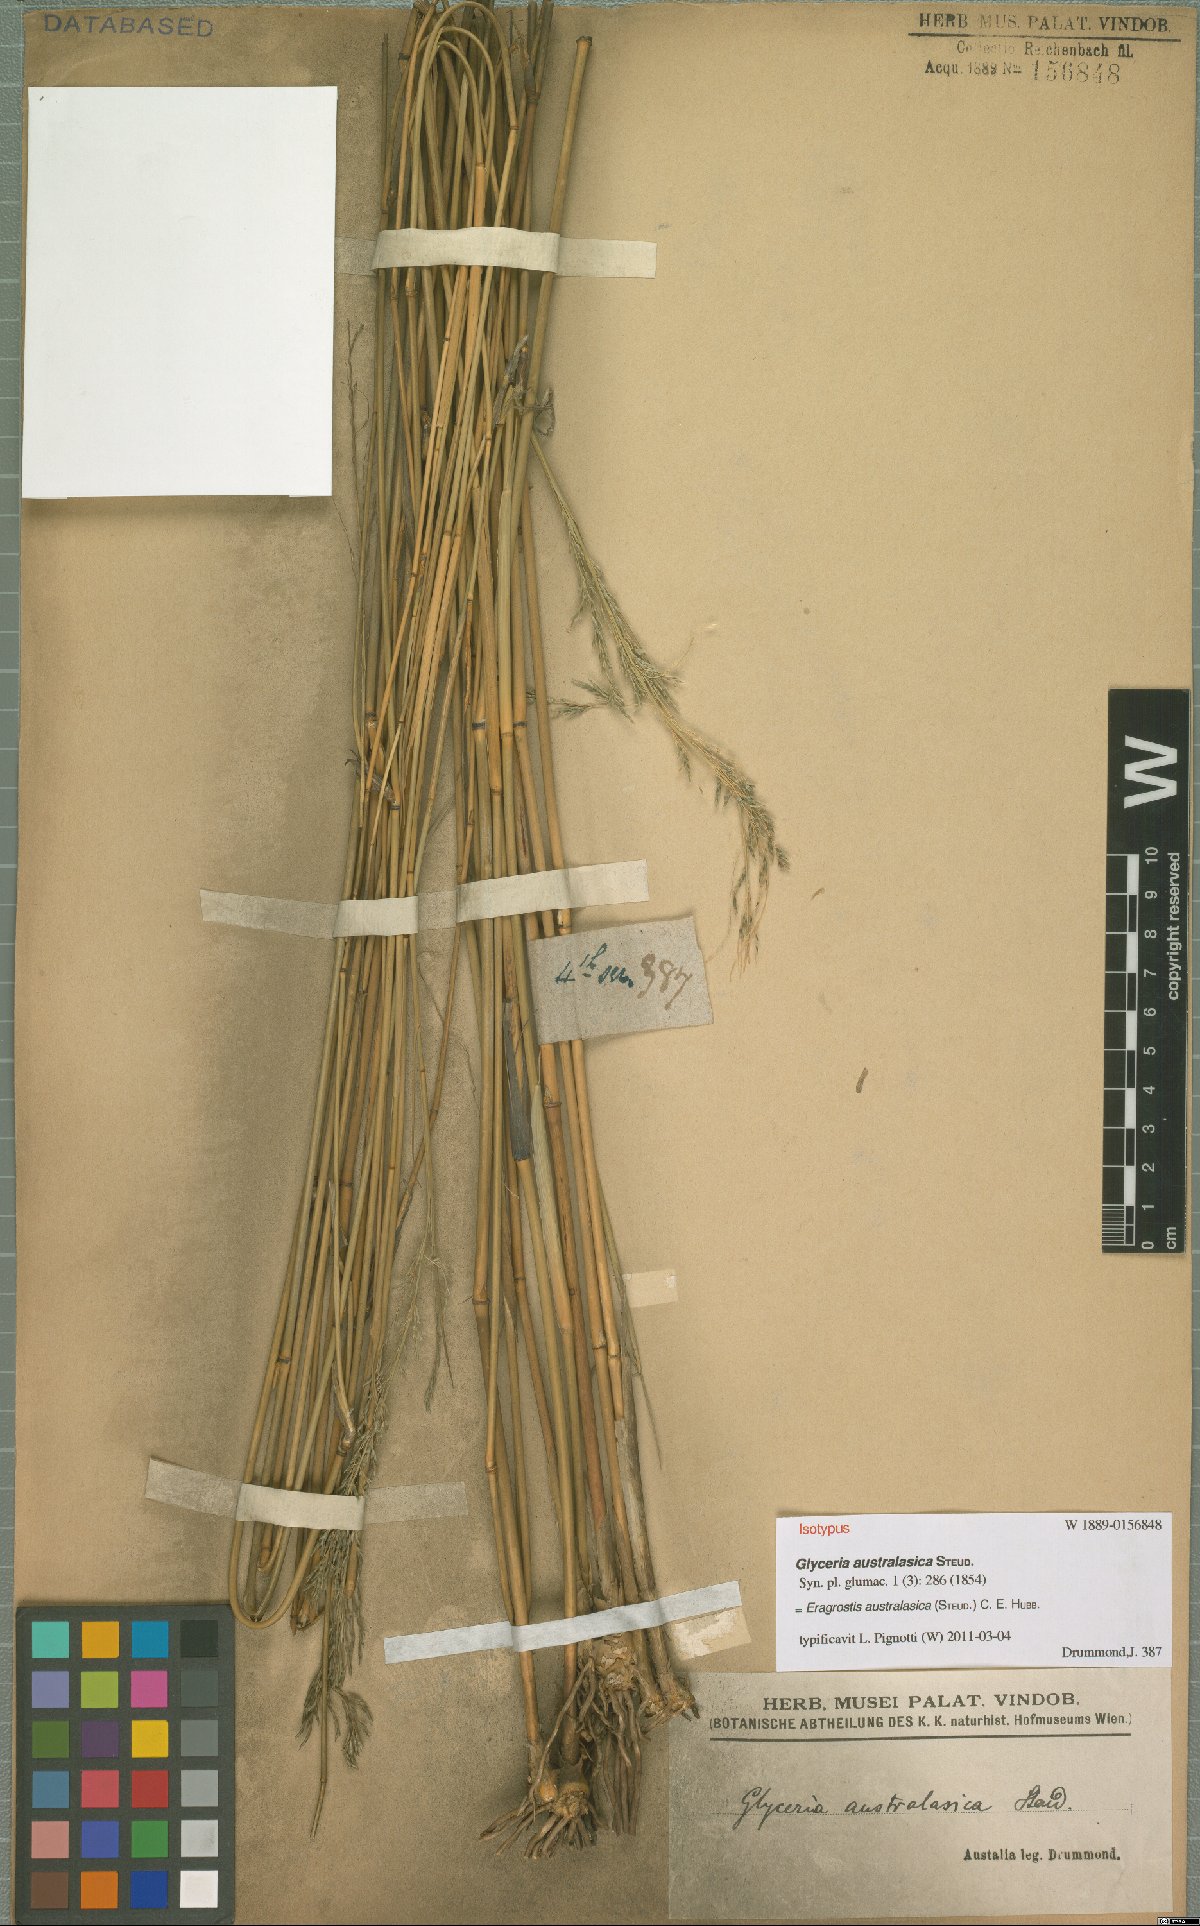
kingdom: Plantae
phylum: Tracheophyta
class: Liliopsida
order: Poales
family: Poaceae
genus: Sporobolus
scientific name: Sporobolus ramigerus
